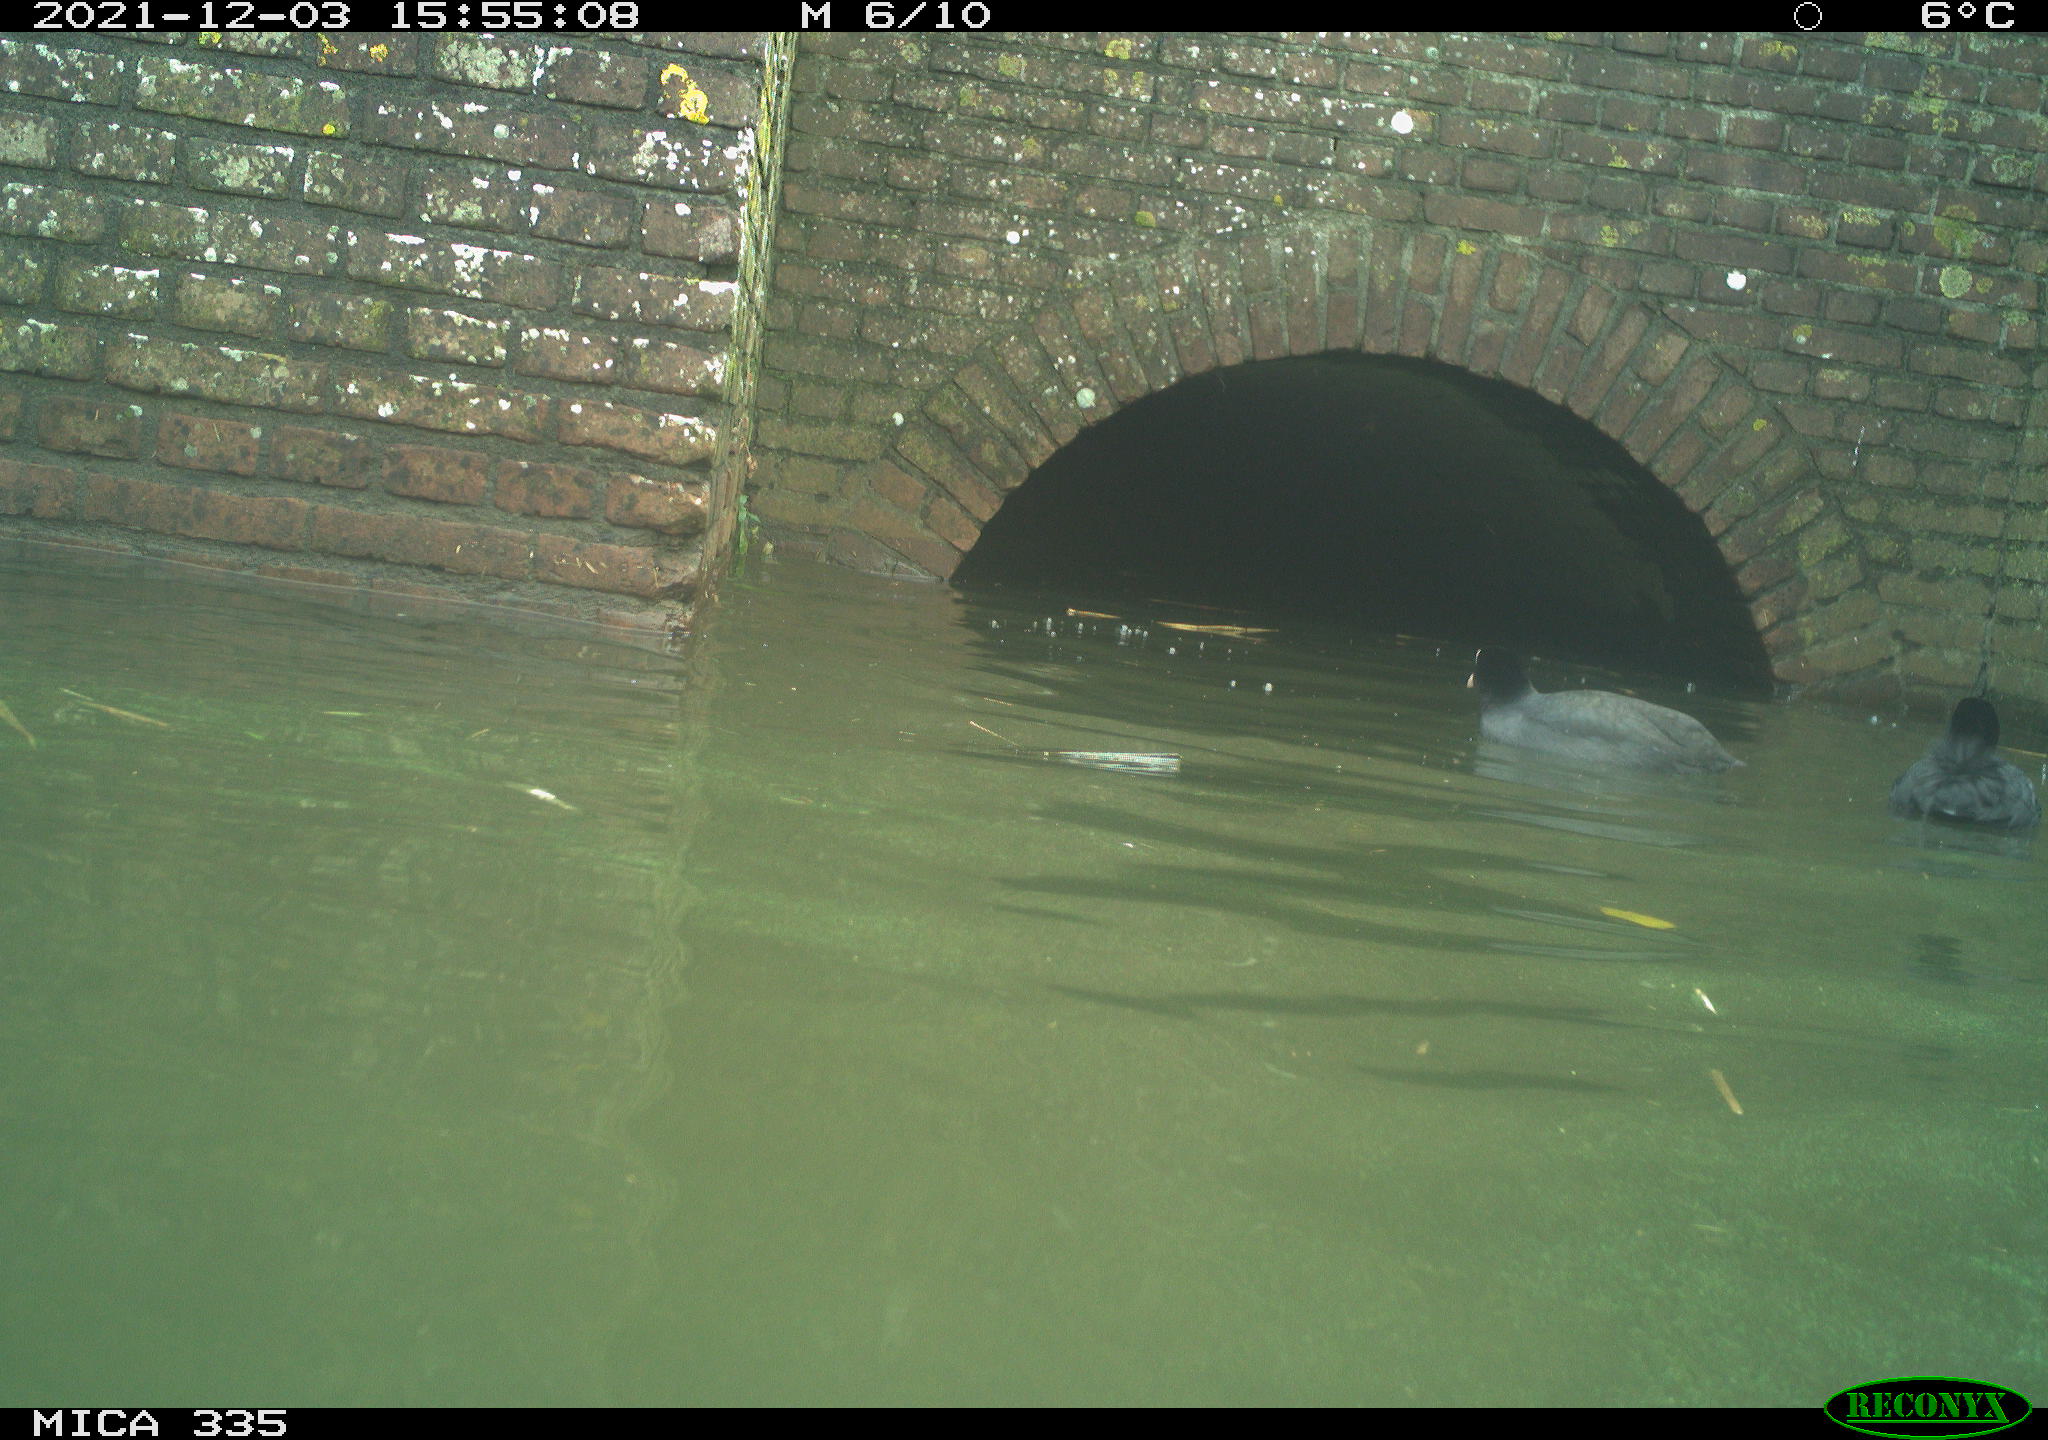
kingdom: Animalia
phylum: Chordata
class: Aves
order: Gruiformes
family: Rallidae
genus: Fulica
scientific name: Fulica atra
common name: Eurasian coot
